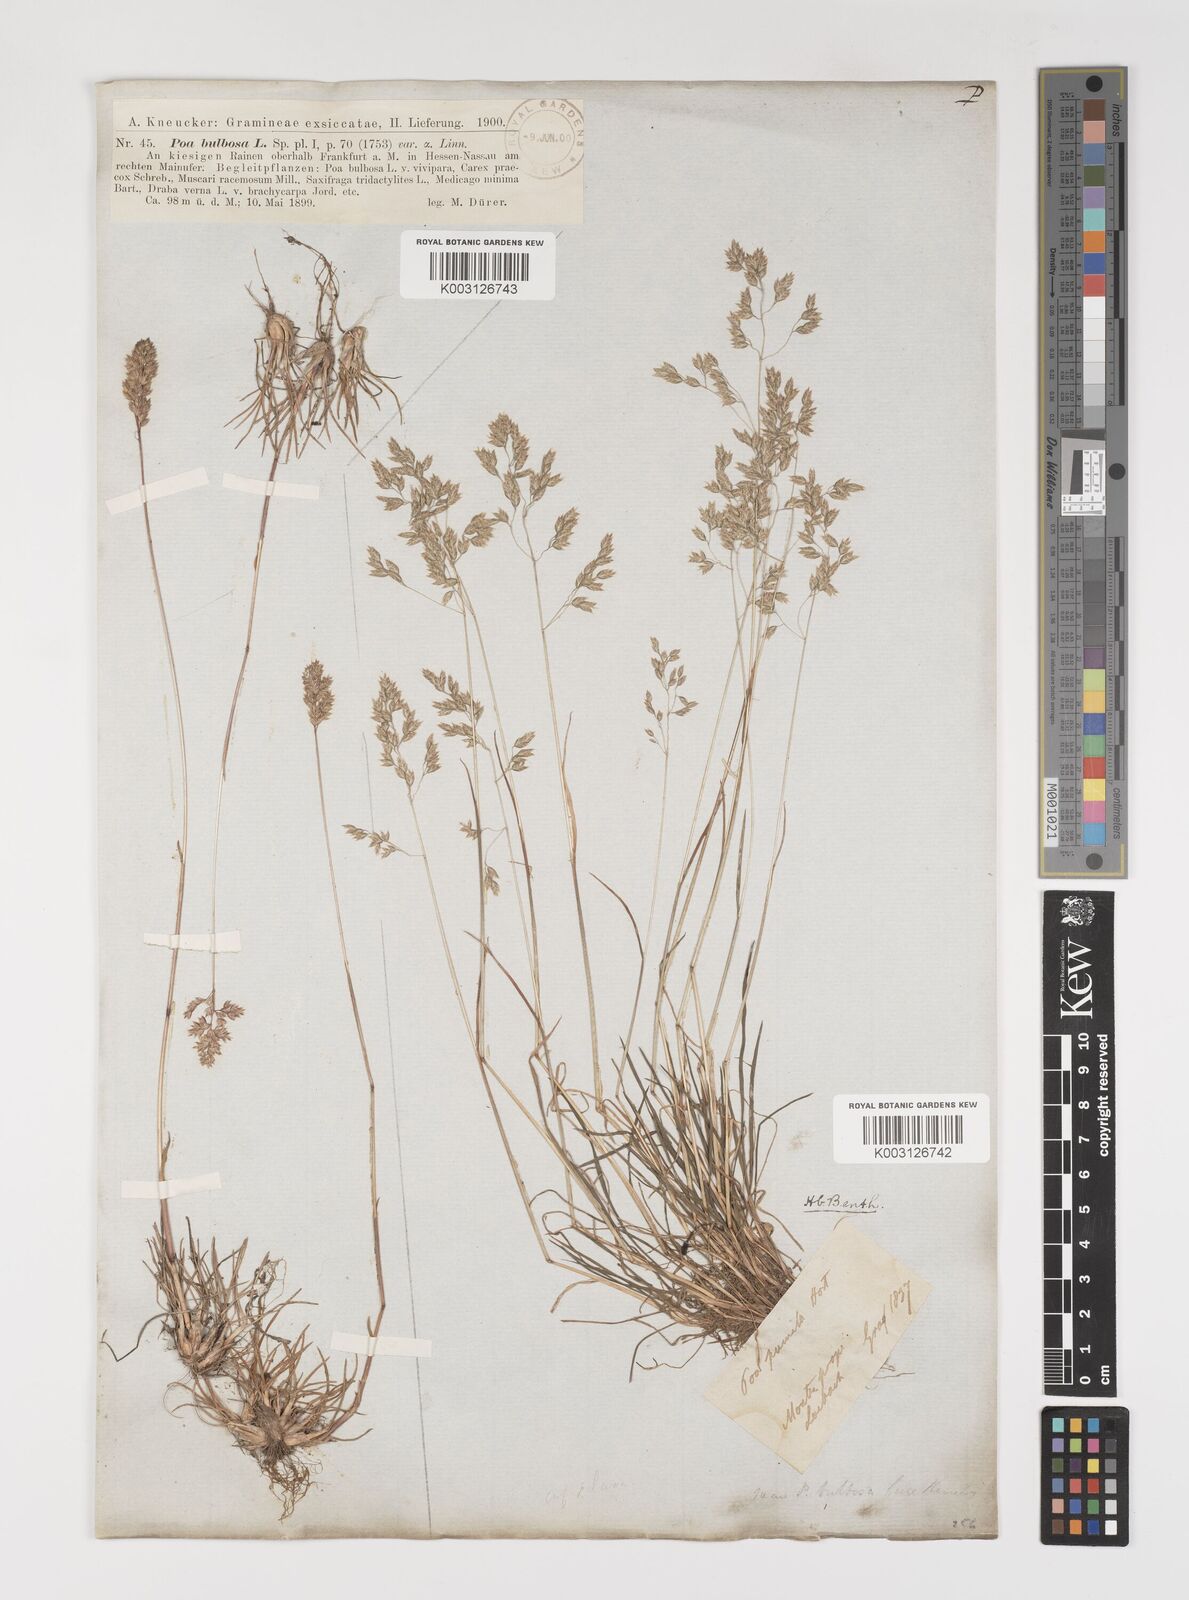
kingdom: Plantae
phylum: Tracheophyta
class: Liliopsida
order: Poales
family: Poaceae
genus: Poa
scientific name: Poa bulbosa
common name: Bulbous bluegrass
